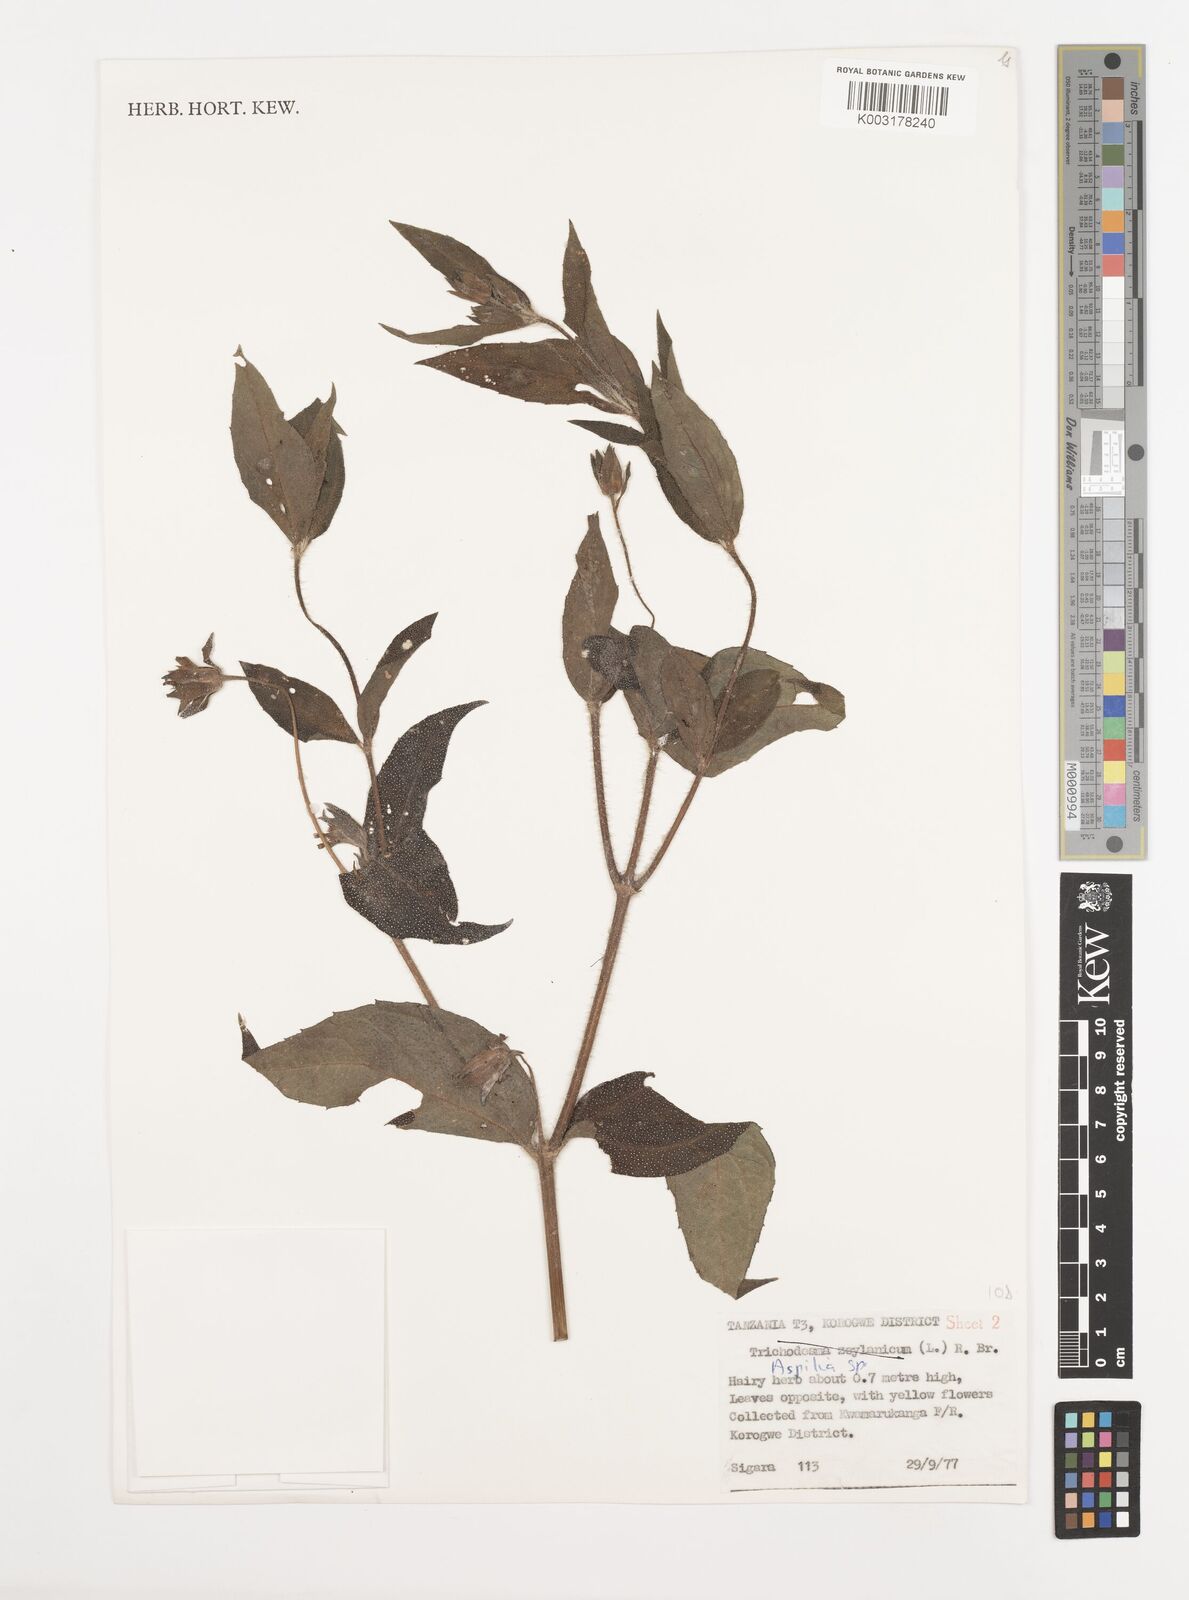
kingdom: Plantae
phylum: Tracheophyta
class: Magnoliopsida
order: Asterales
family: Asteraceae
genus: Aspilia
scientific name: Aspilia mossambicensis
